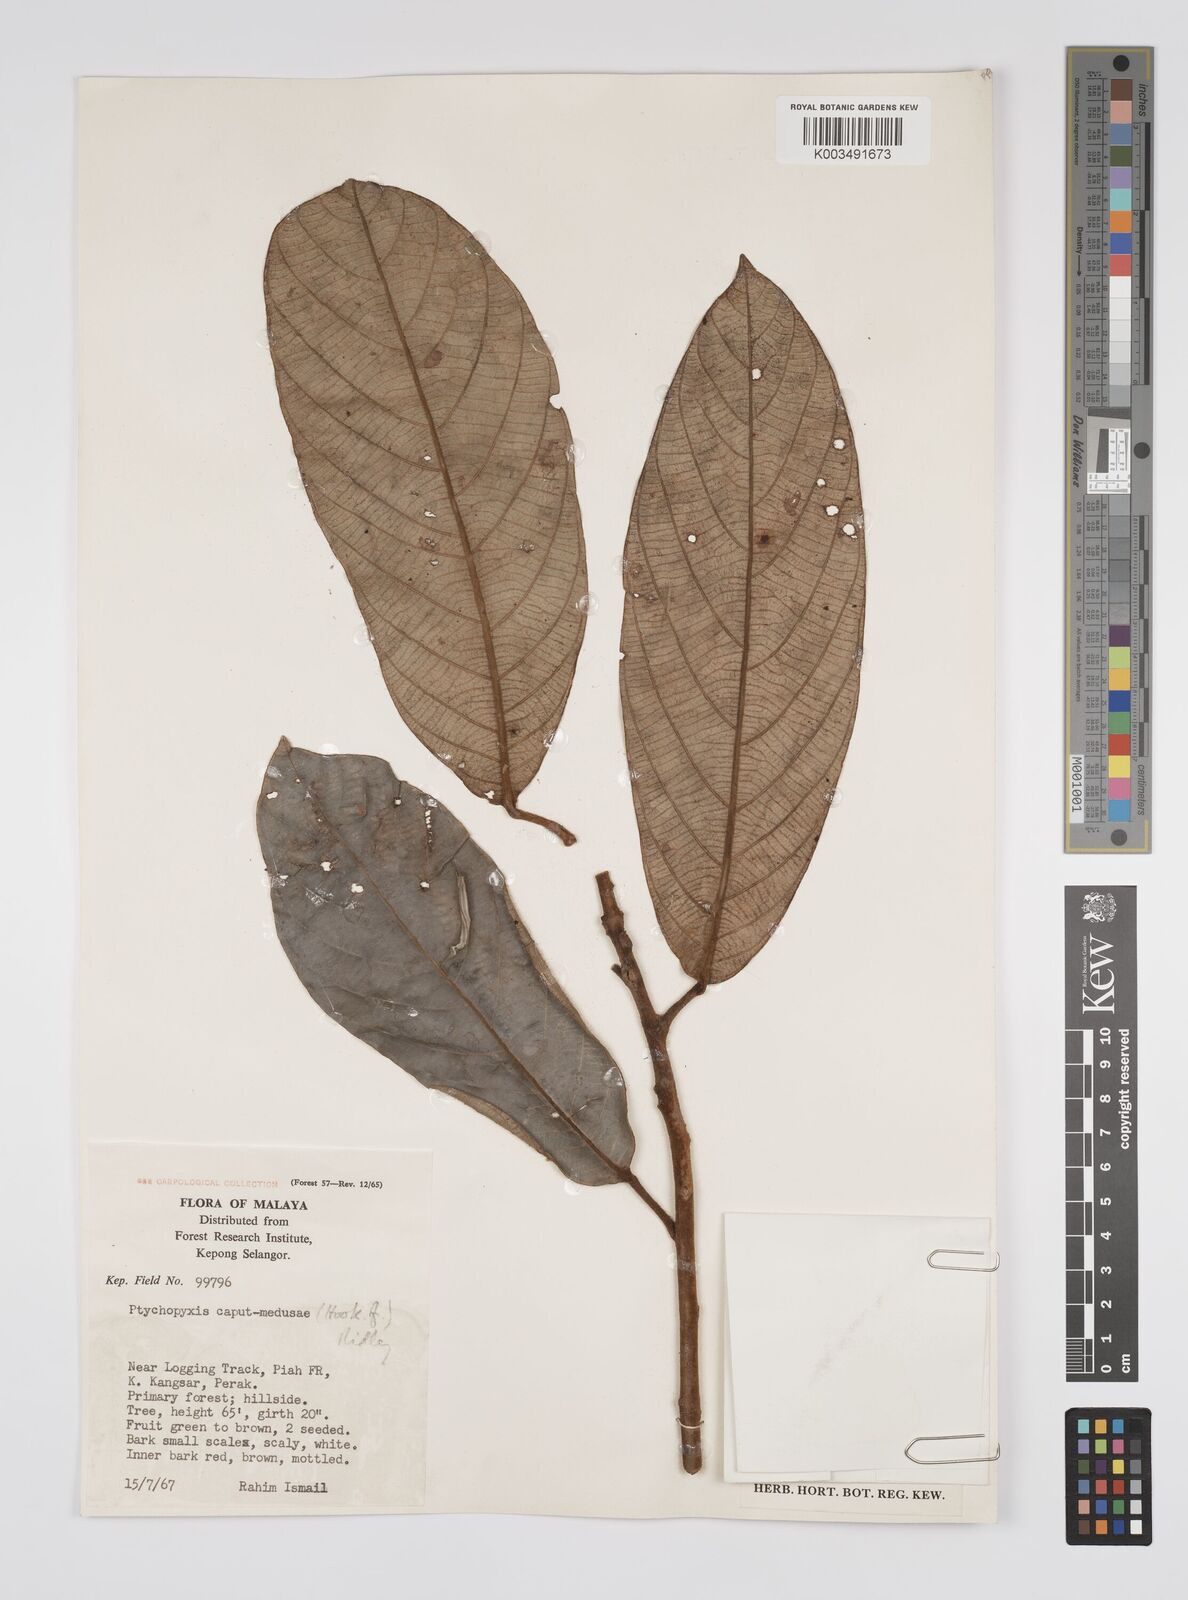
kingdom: Plantae
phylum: Tracheophyta
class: Magnoliopsida
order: Malpighiales
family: Euphorbiaceae
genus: Ptychopyxis
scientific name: Ptychopyxis caput-medusae
